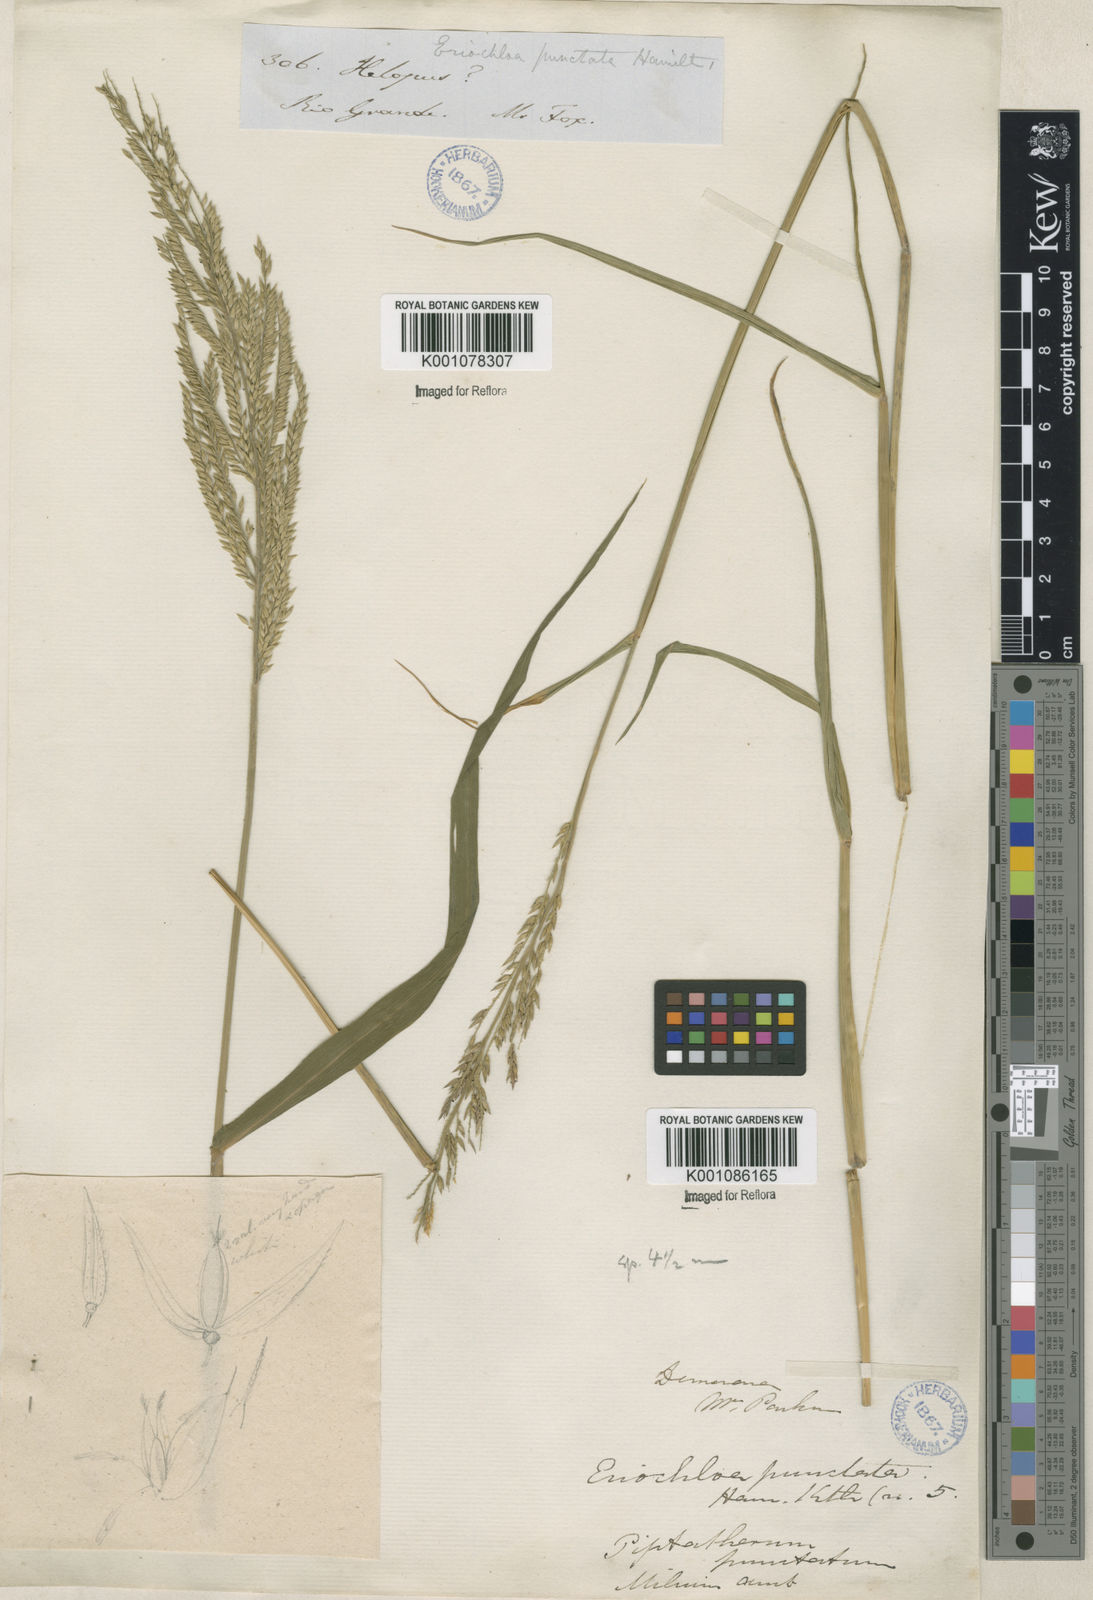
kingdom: Plantae
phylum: Tracheophyta
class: Liliopsida
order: Poales
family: Poaceae
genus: Eriochloa
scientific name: Eriochloa punctata
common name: Louisiana cupgrass
